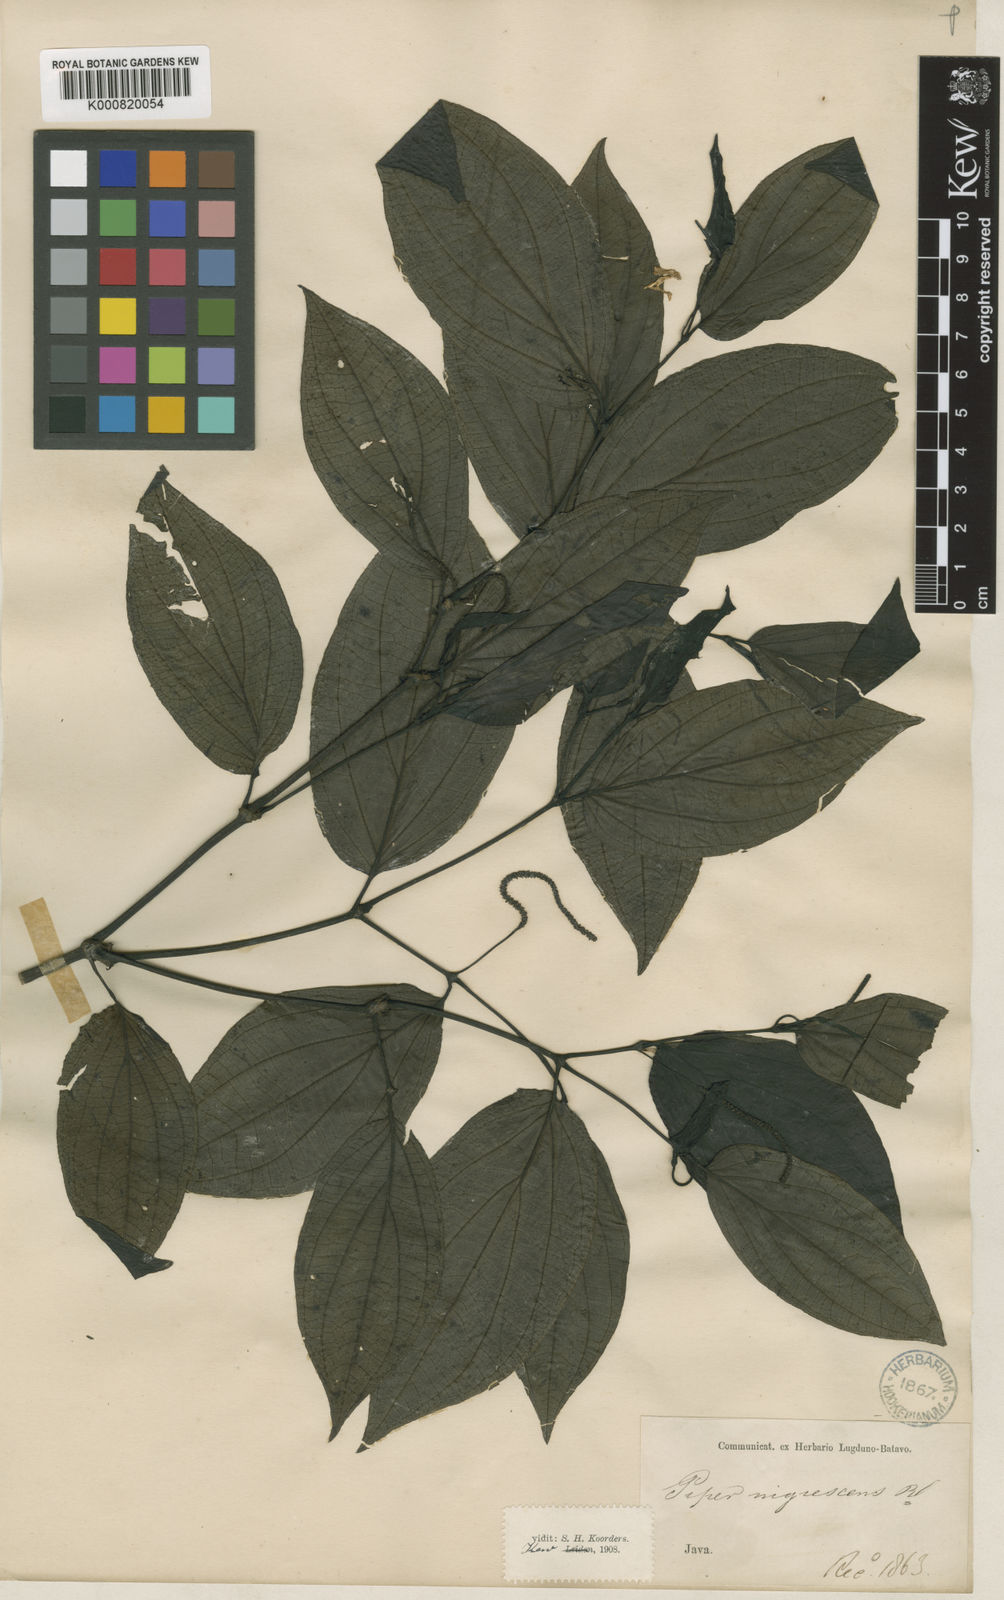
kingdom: Plantae
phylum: Tracheophyta
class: Magnoliopsida
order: Piperales
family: Piperaceae
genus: Piper
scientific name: Piper sulcatum
